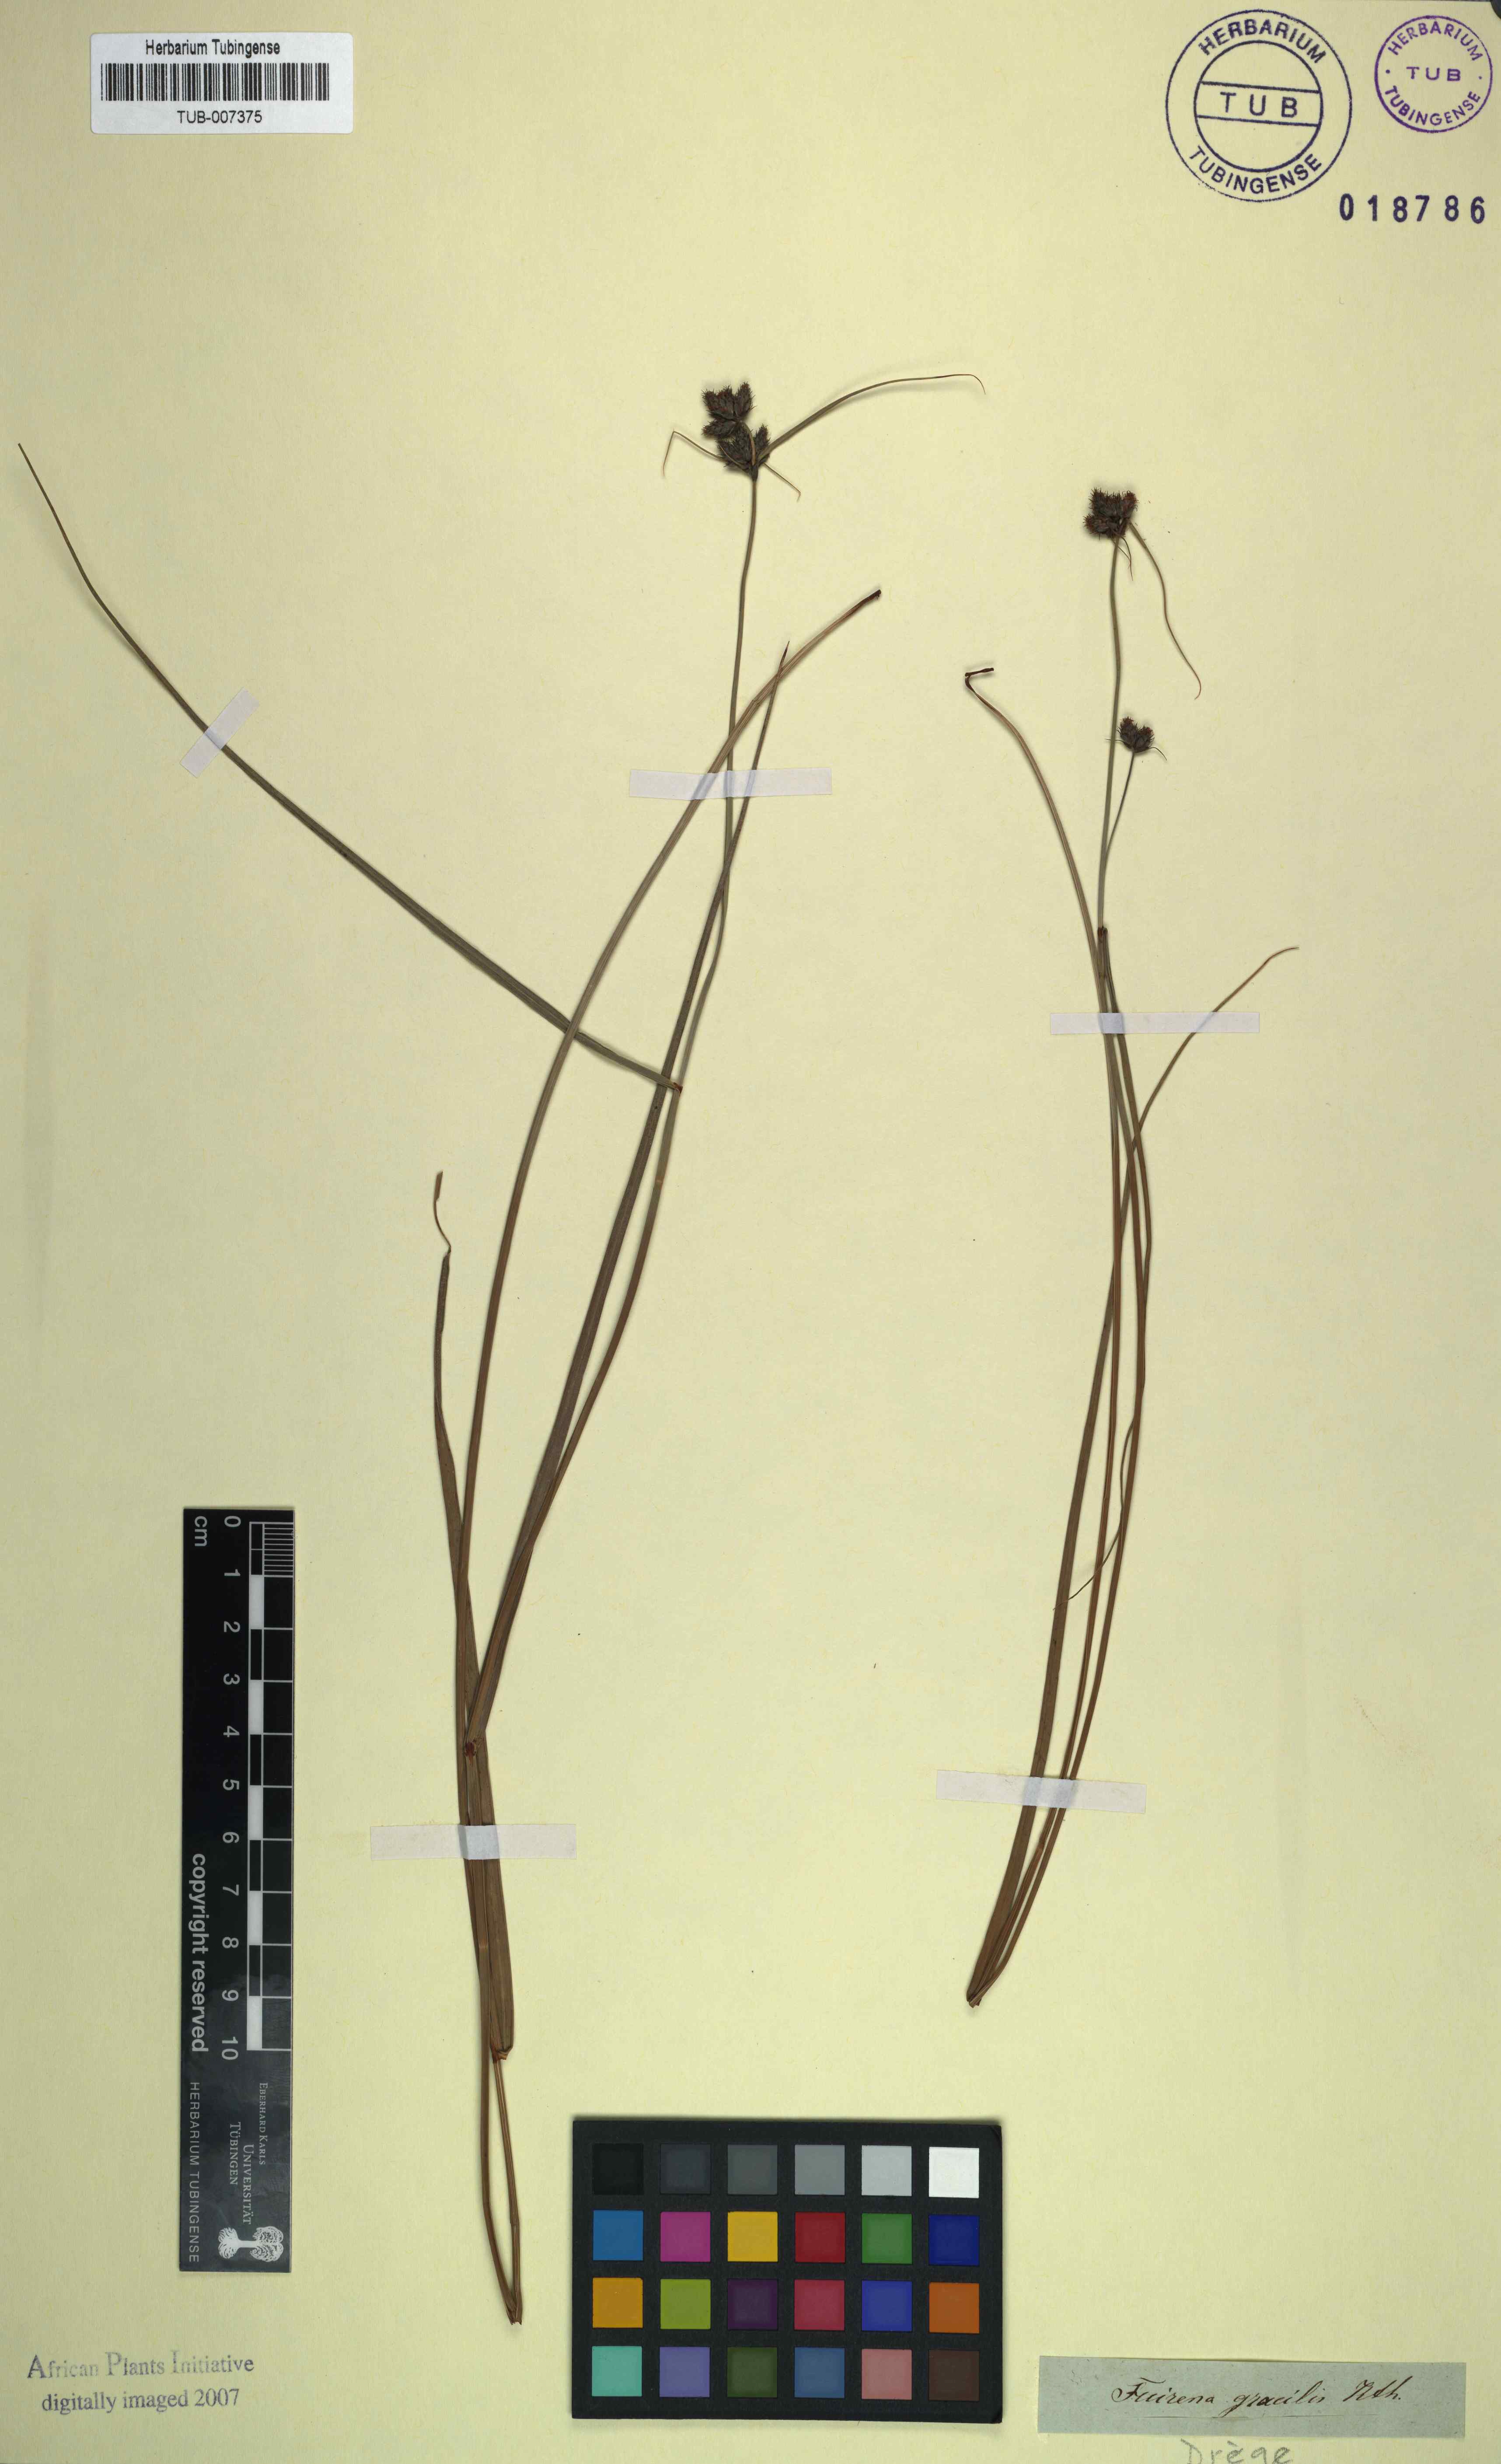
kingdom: Plantae
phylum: Tracheophyta
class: Liliopsida
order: Poales
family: Cyperaceae
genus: Fuirena
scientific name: Fuirena coerulescens
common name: Blue umbrella-sedge
